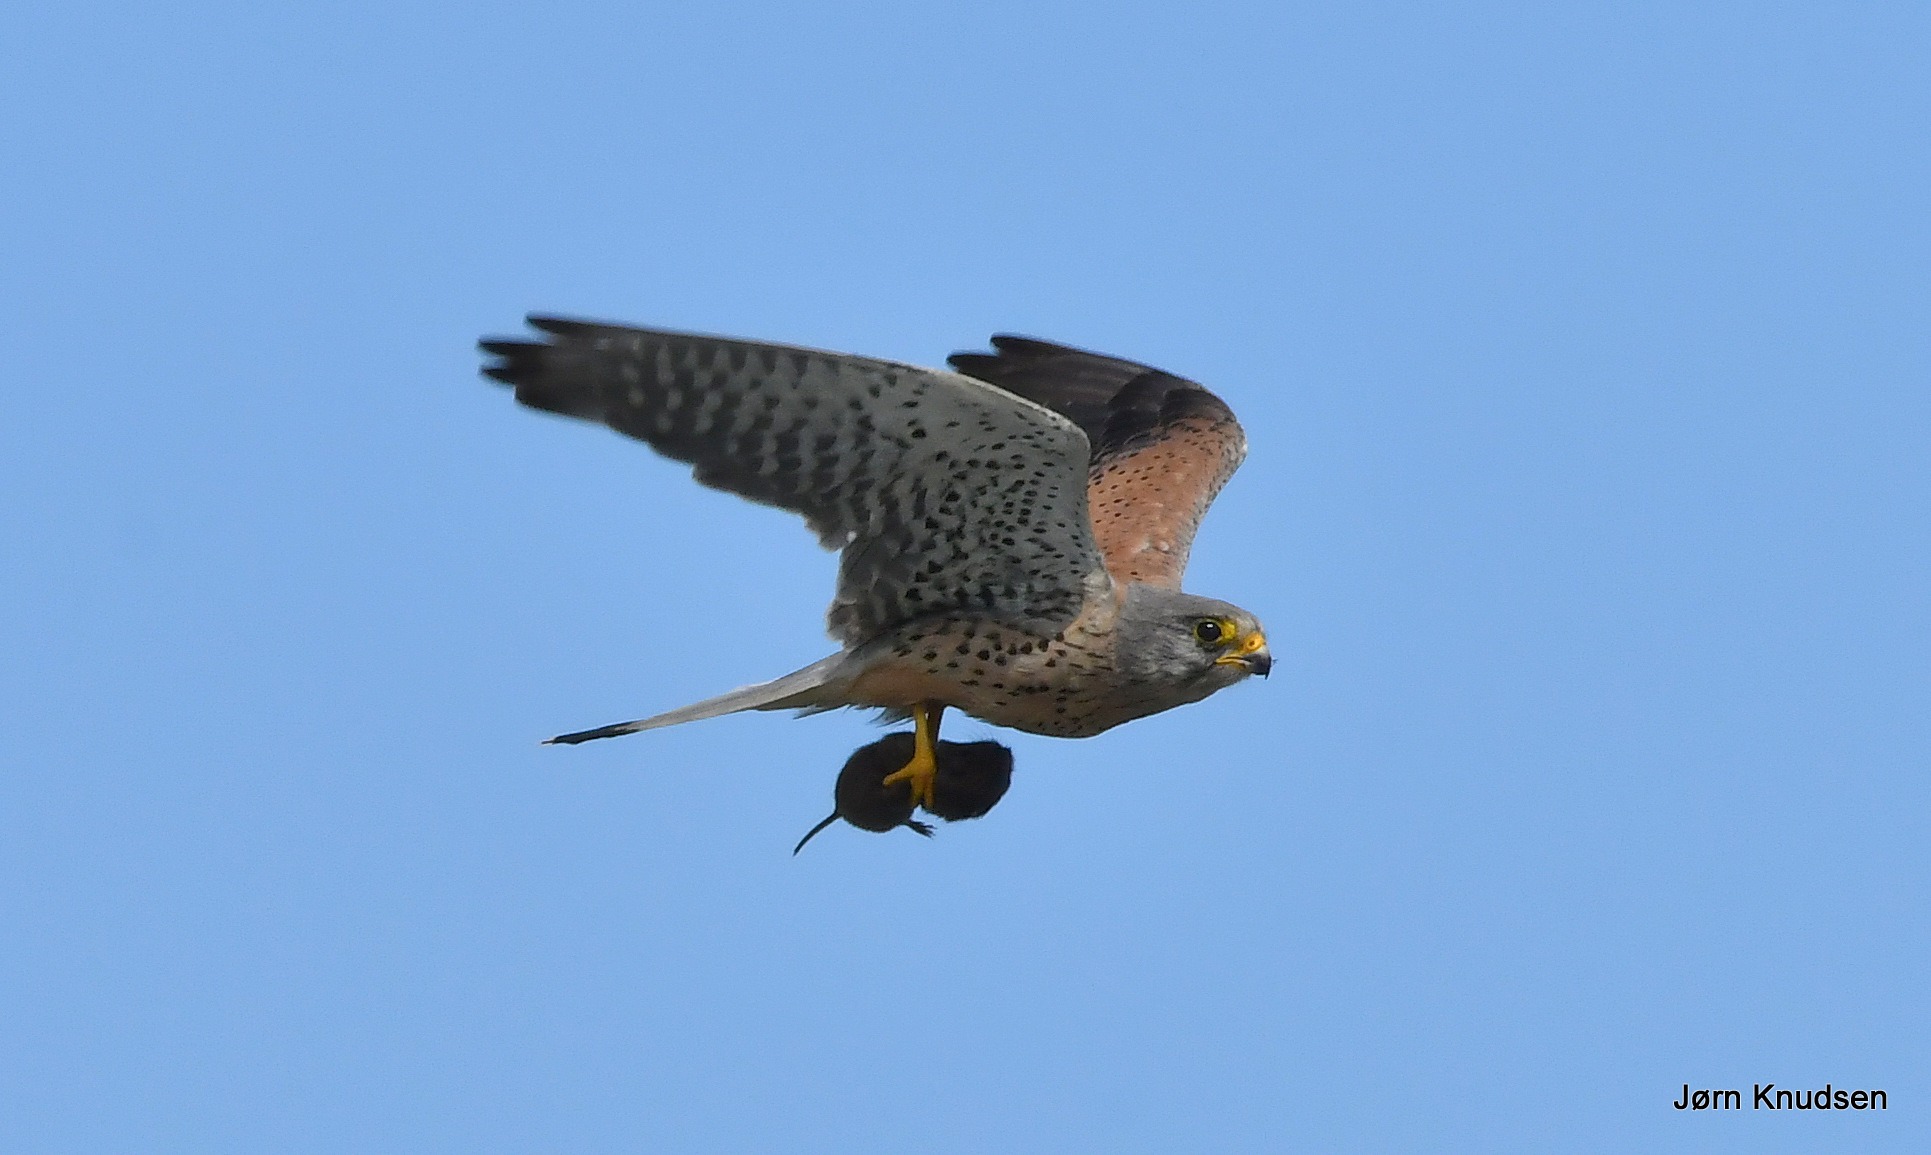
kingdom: Animalia
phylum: Chordata
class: Aves
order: Falconiformes
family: Falconidae
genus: Falco
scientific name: Falco tinnunculus
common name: Tårnfalk
